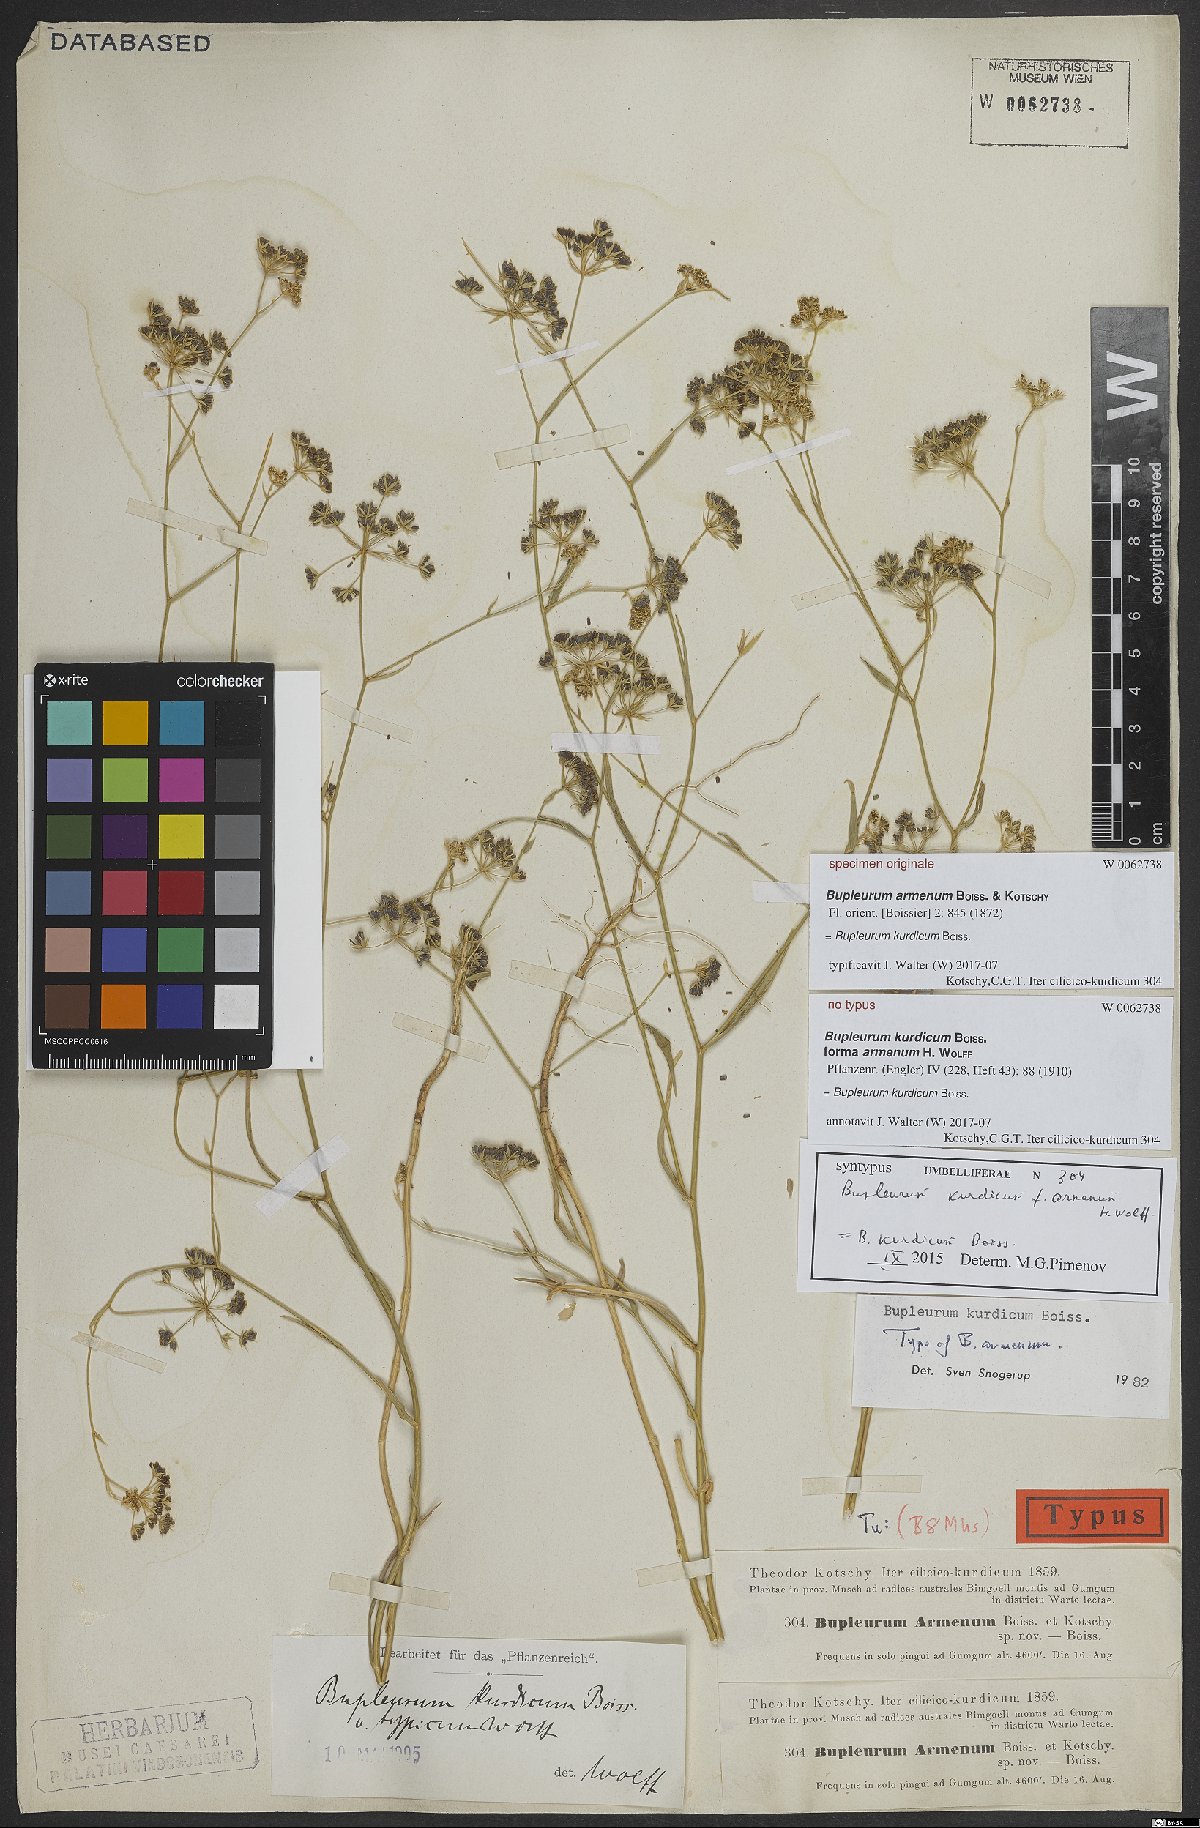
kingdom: Plantae
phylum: Tracheophyta
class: Magnoliopsida
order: Apiales
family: Apiaceae
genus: Bupleurum
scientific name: Bupleurum kurdicum
